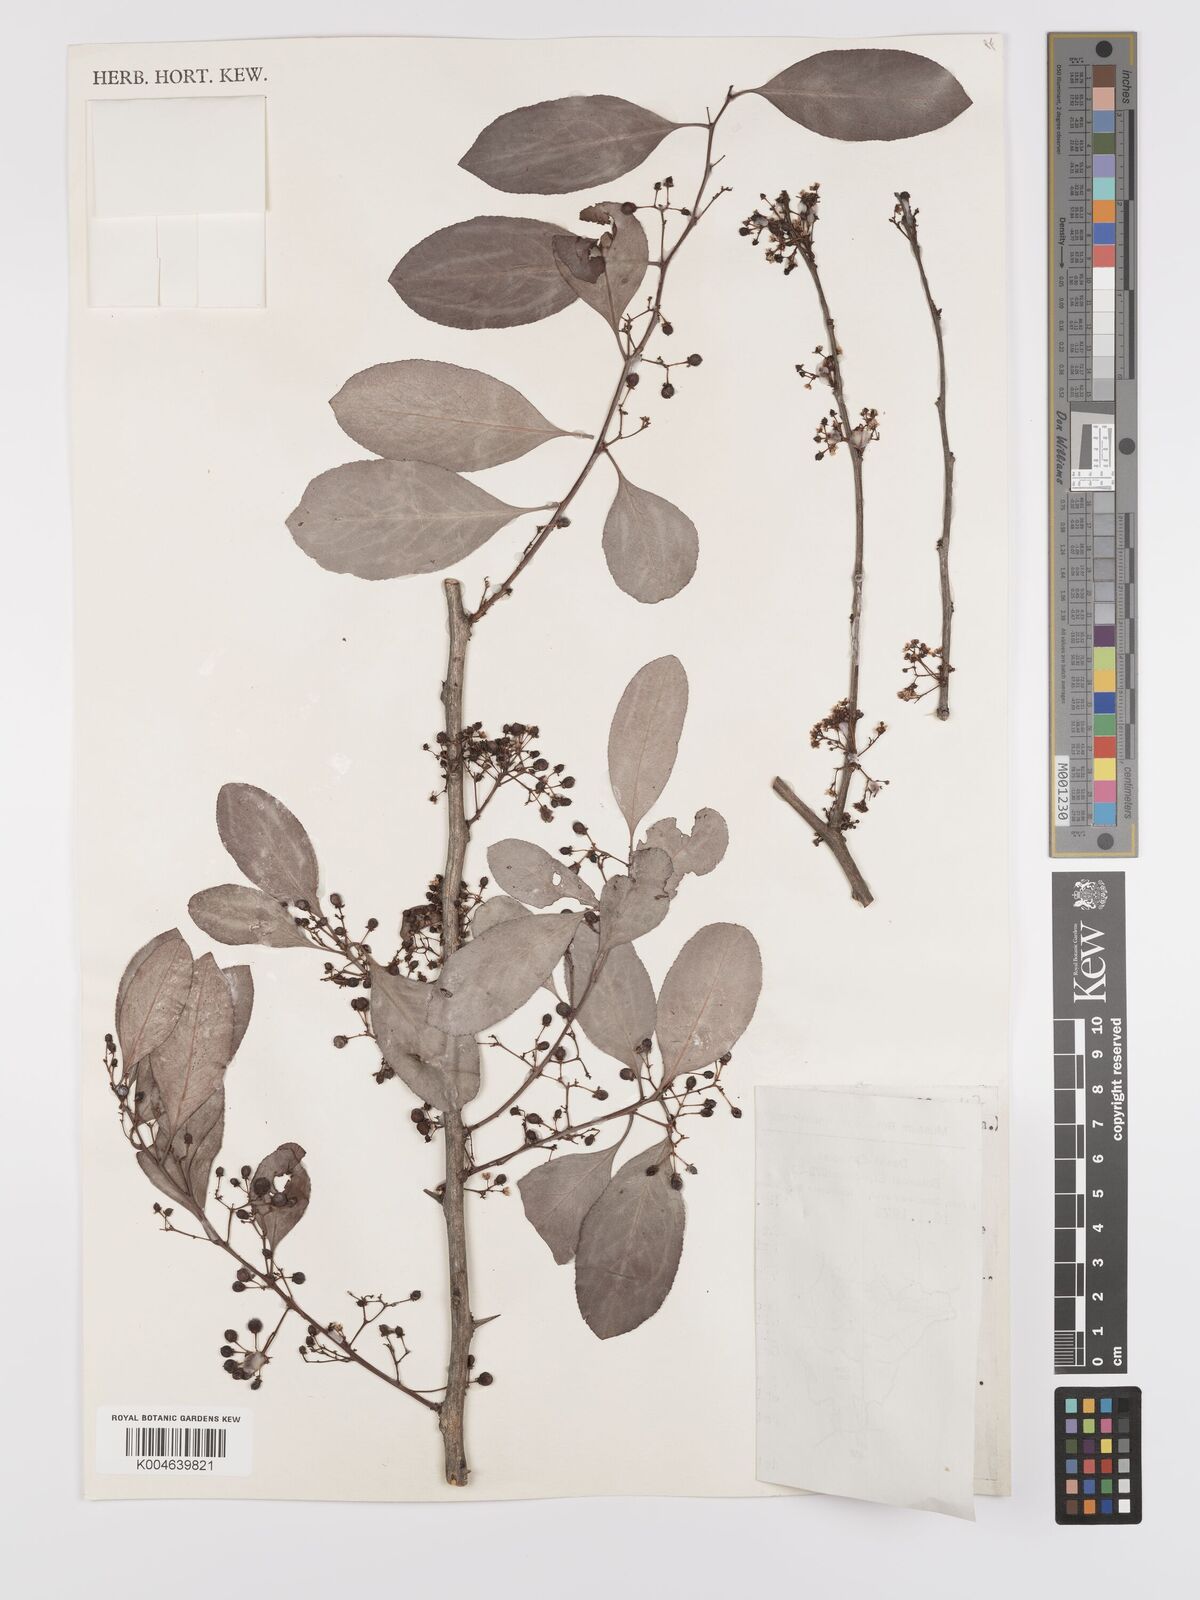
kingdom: Plantae
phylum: Tracheophyta
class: Magnoliopsida
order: Celastrales
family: Celastraceae
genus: Gymnosporia
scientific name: Gymnosporia senegalensis
